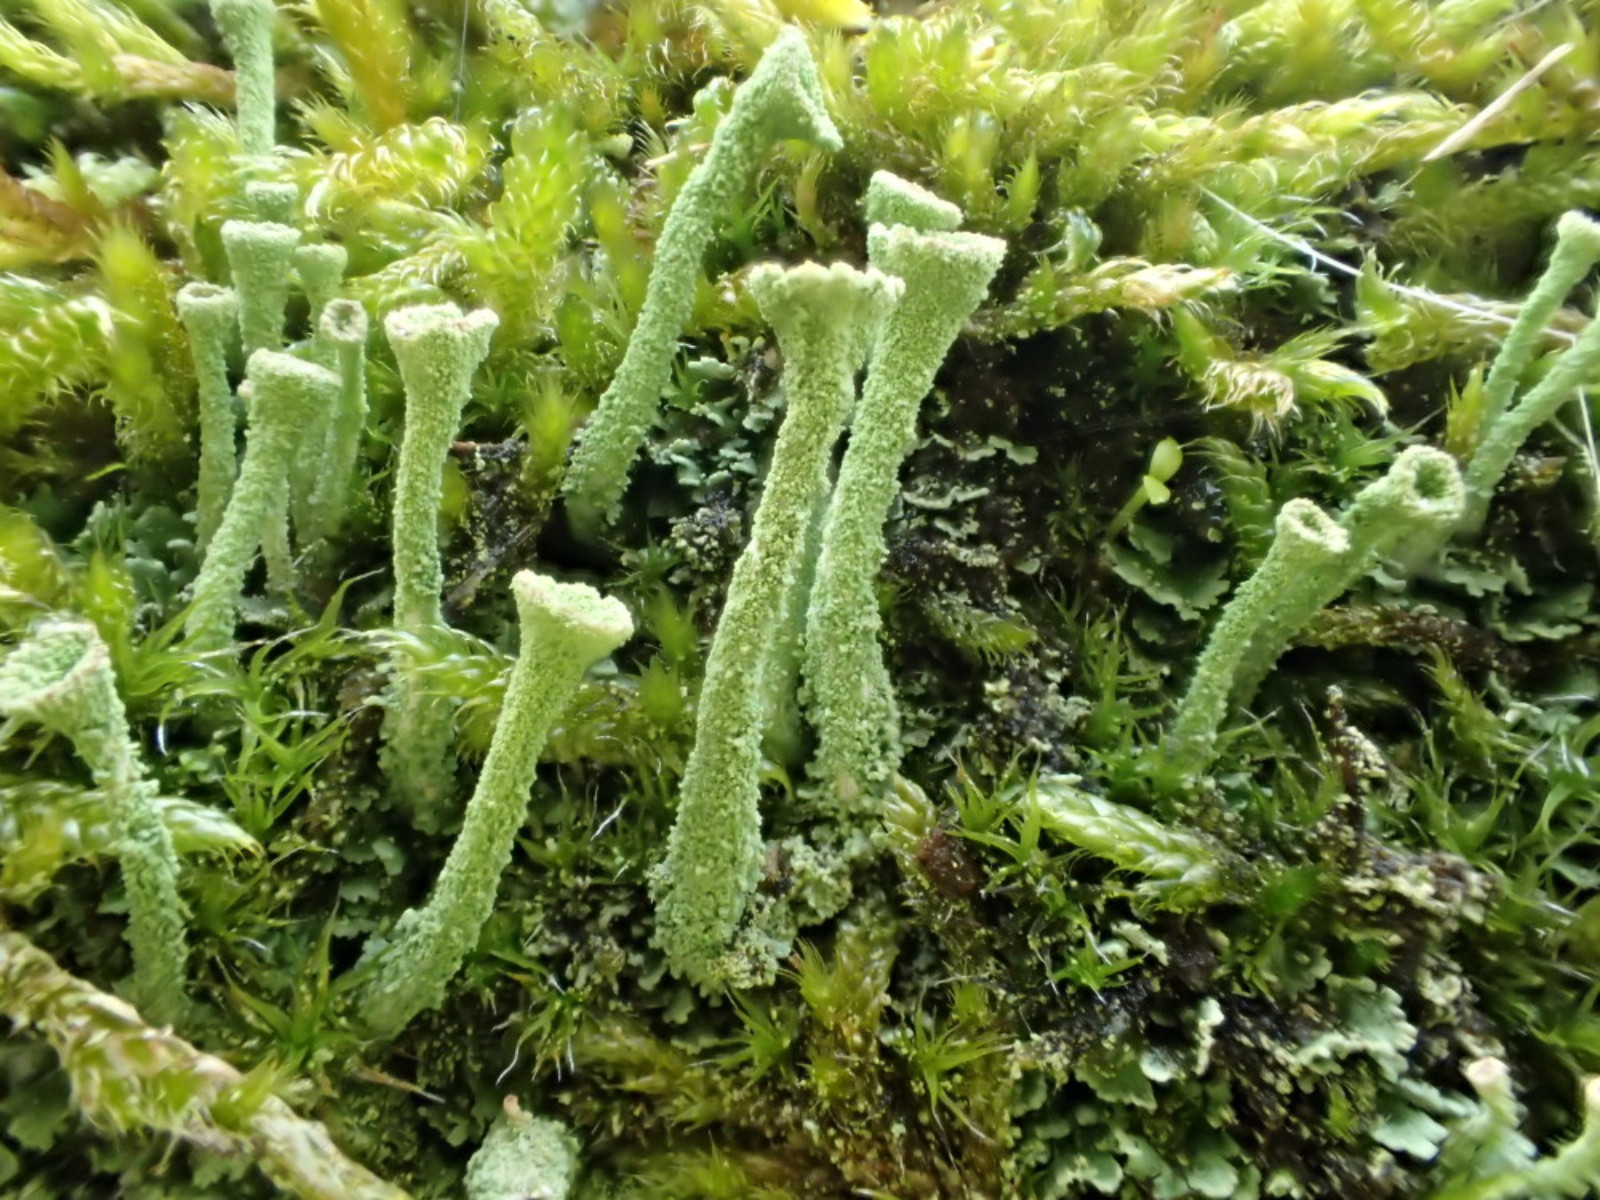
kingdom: Fungi
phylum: Ascomycota
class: Lecanoromycetes
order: Lecanorales
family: Cladoniaceae
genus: Cladonia
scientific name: Cladonia fimbriata
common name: bleggrøn bægerlav
